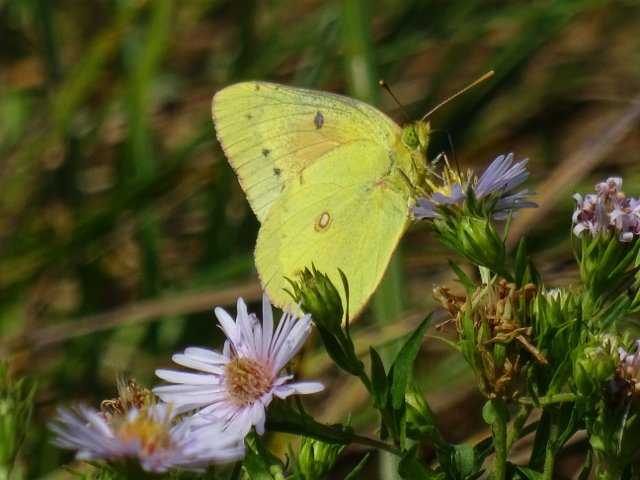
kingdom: Animalia
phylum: Arthropoda
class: Insecta
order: Lepidoptera
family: Pieridae
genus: Colias
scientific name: Colias eurytheme
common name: Orange Sulphur
